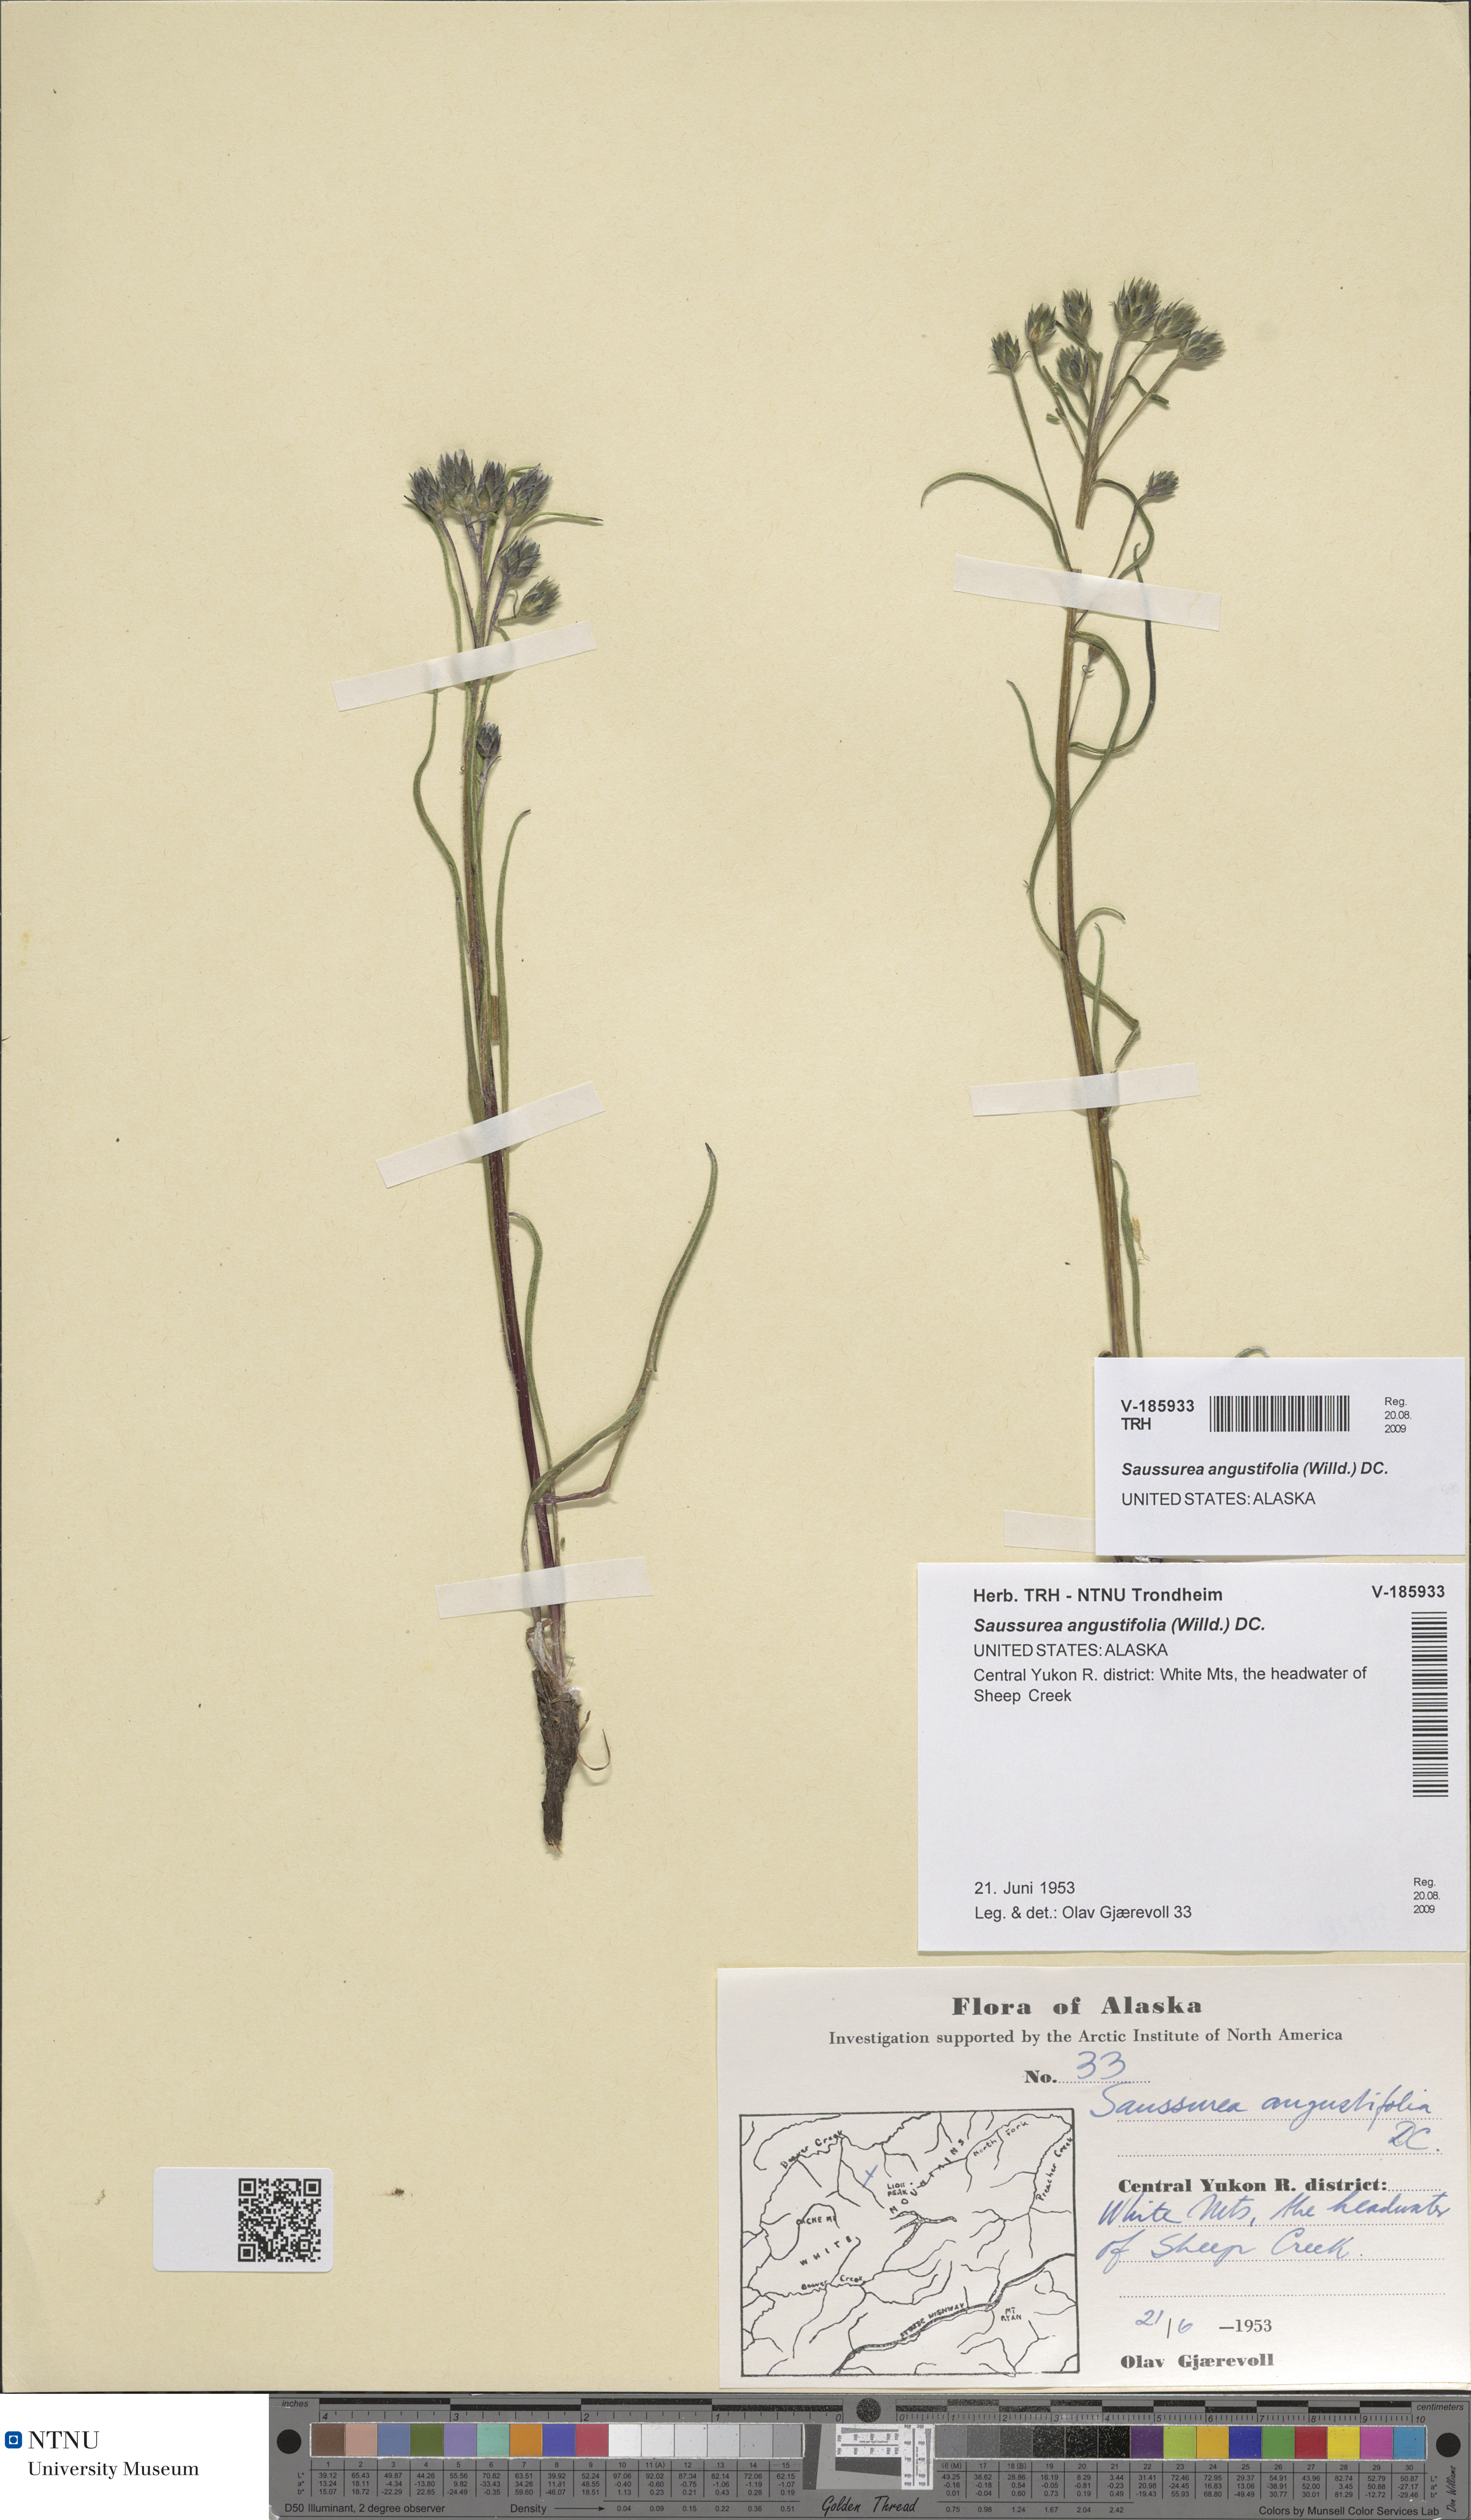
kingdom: Plantae
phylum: Tracheophyta
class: Magnoliopsida
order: Asterales
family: Asteraceae
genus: Saussurea
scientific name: Saussurea angustifolia
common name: Common saussurea
